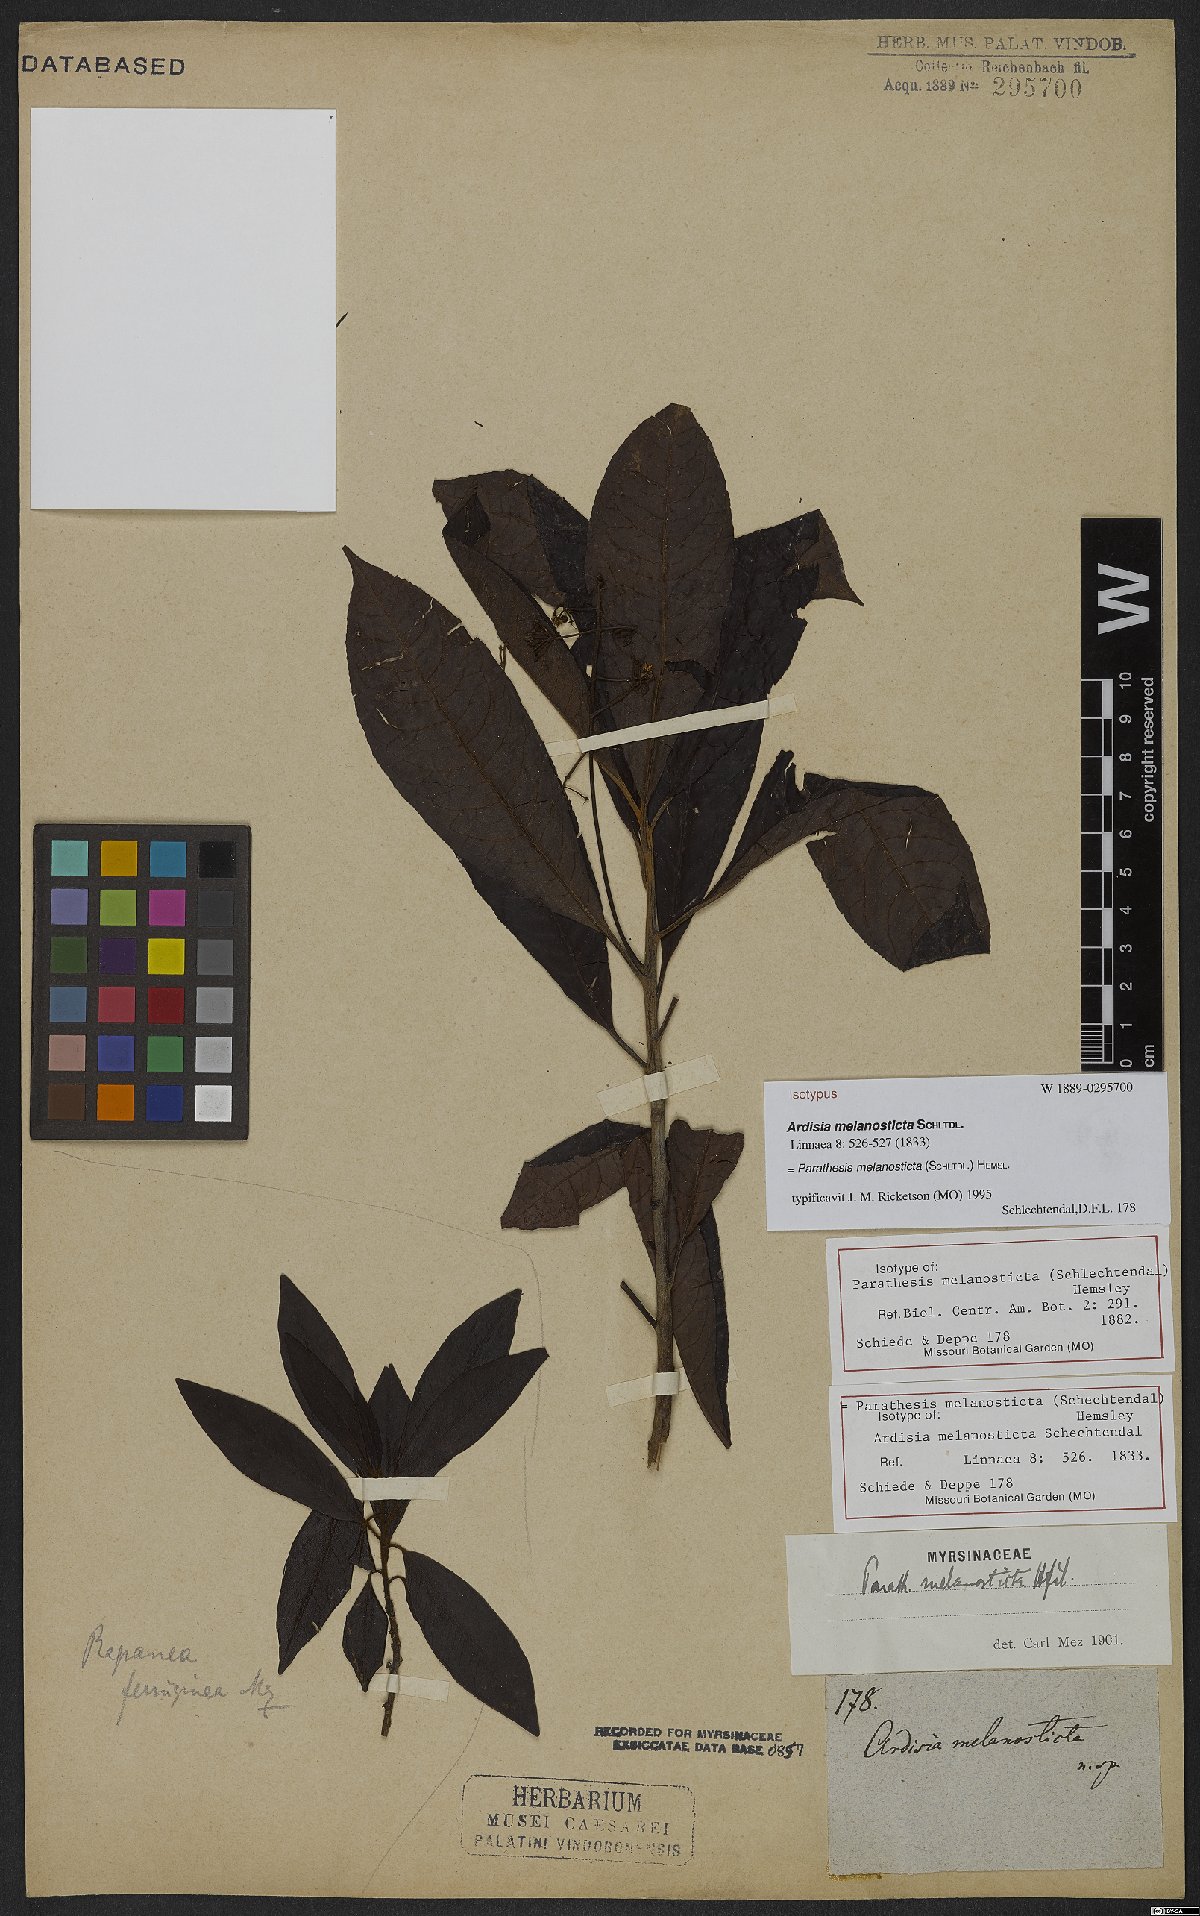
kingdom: Plantae
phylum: Tracheophyta
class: Magnoliopsida
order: Ericales
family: Primulaceae
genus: Parathesis
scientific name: Parathesis melanosticta
